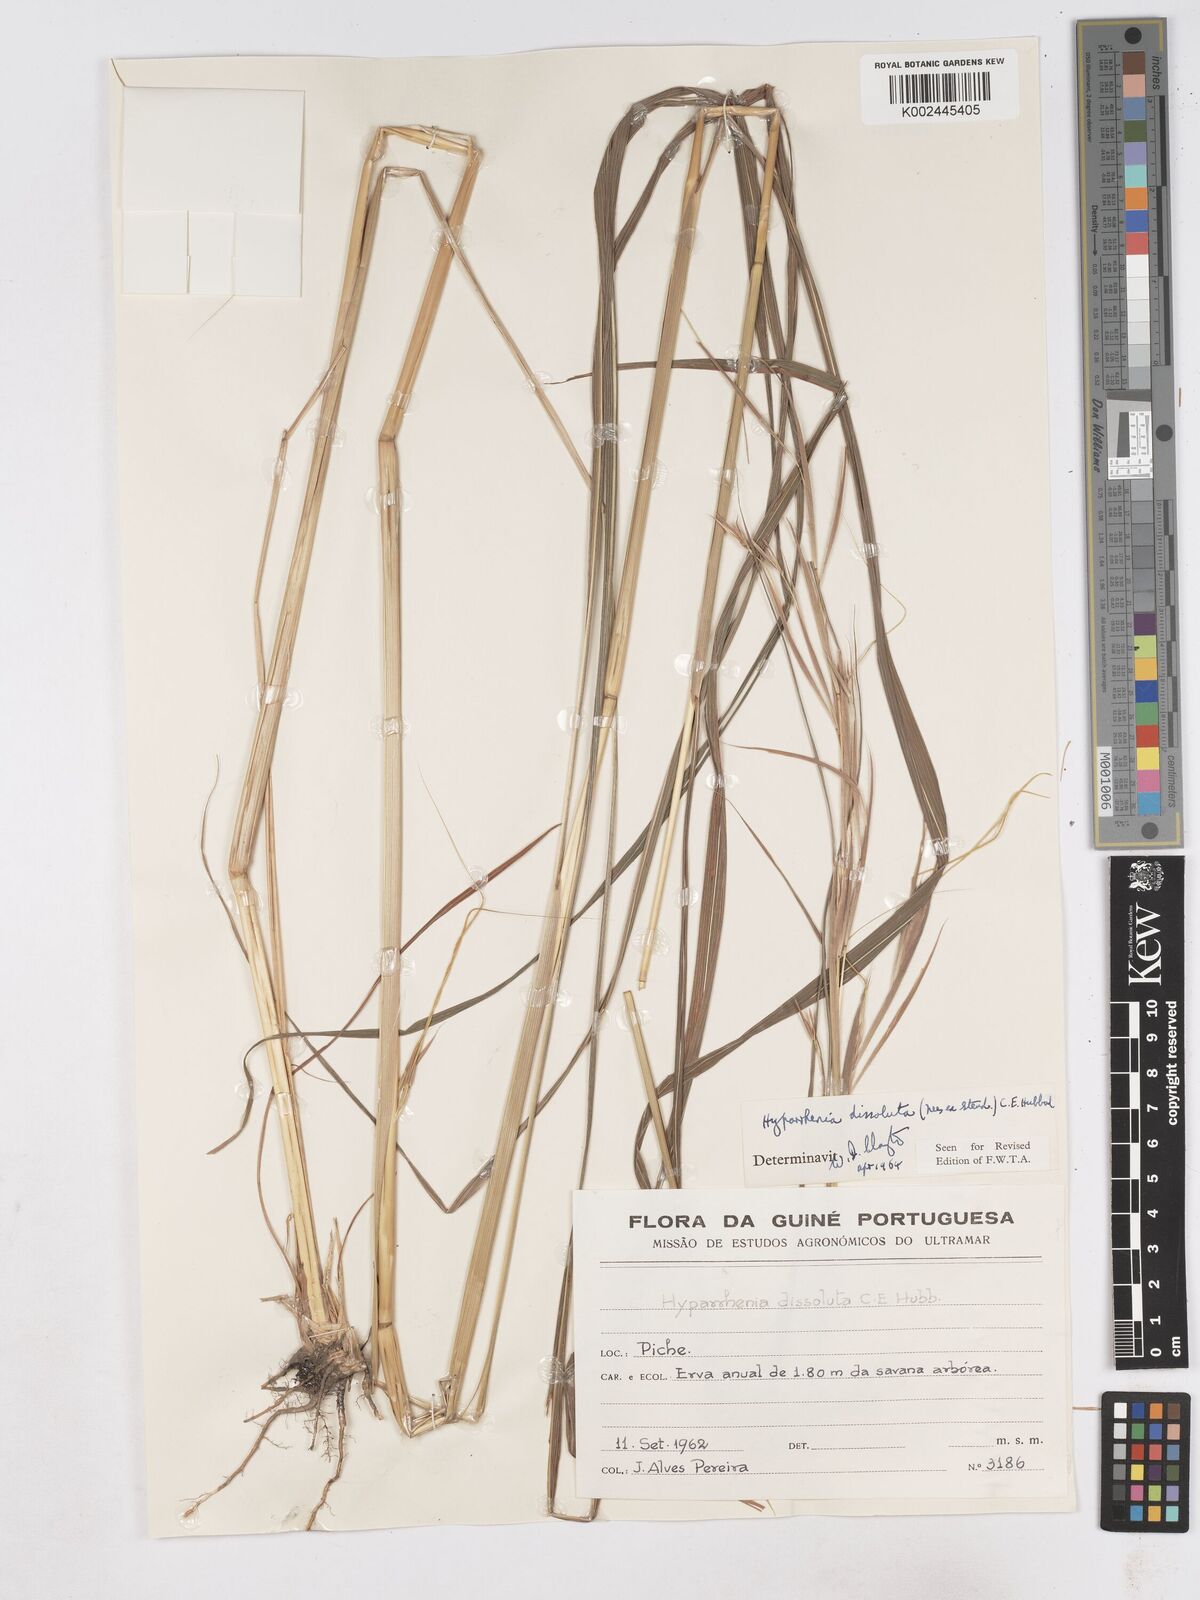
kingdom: Plantae
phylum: Tracheophyta
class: Liliopsida
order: Poales
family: Poaceae
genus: Hyperthelia
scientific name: Hyperthelia dissoluta
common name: Yellow thatching grass
